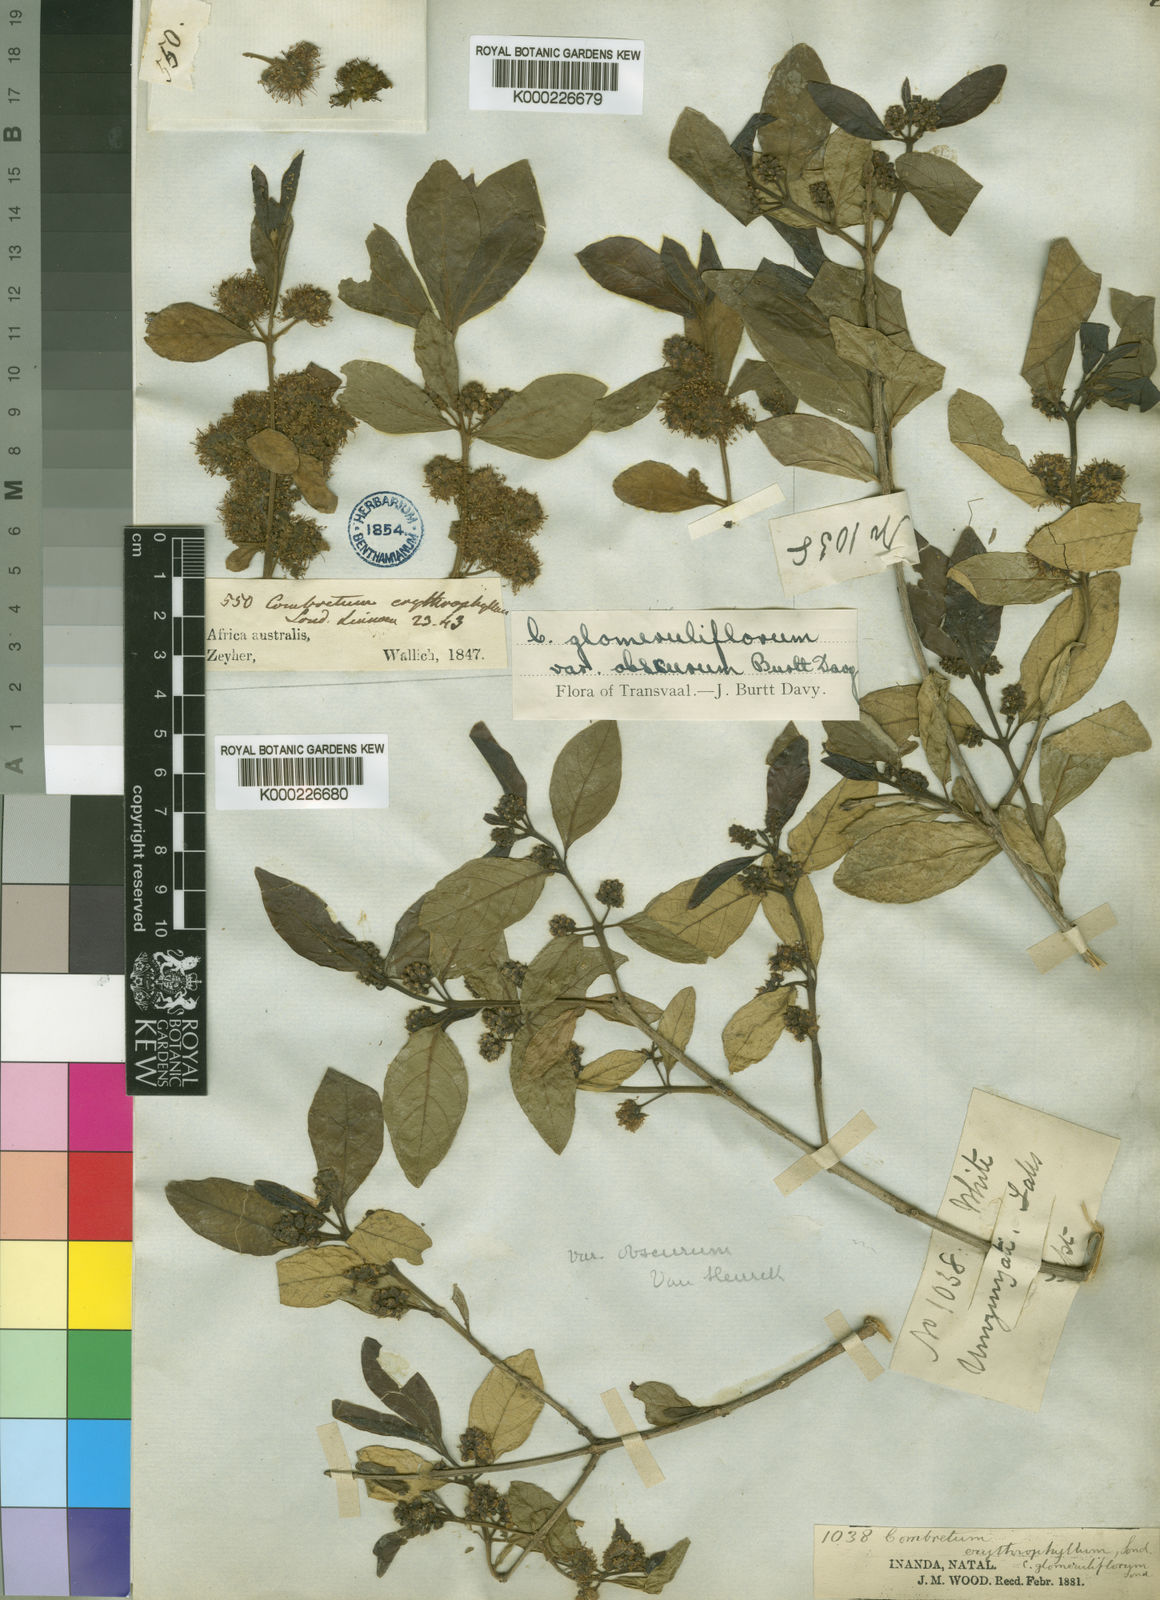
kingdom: Plantae
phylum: Tracheophyta
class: Magnoliopsida
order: Myrtales
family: Combretaceae
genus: Combretum
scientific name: Combretum erythrophyllum
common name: Bush-willow
